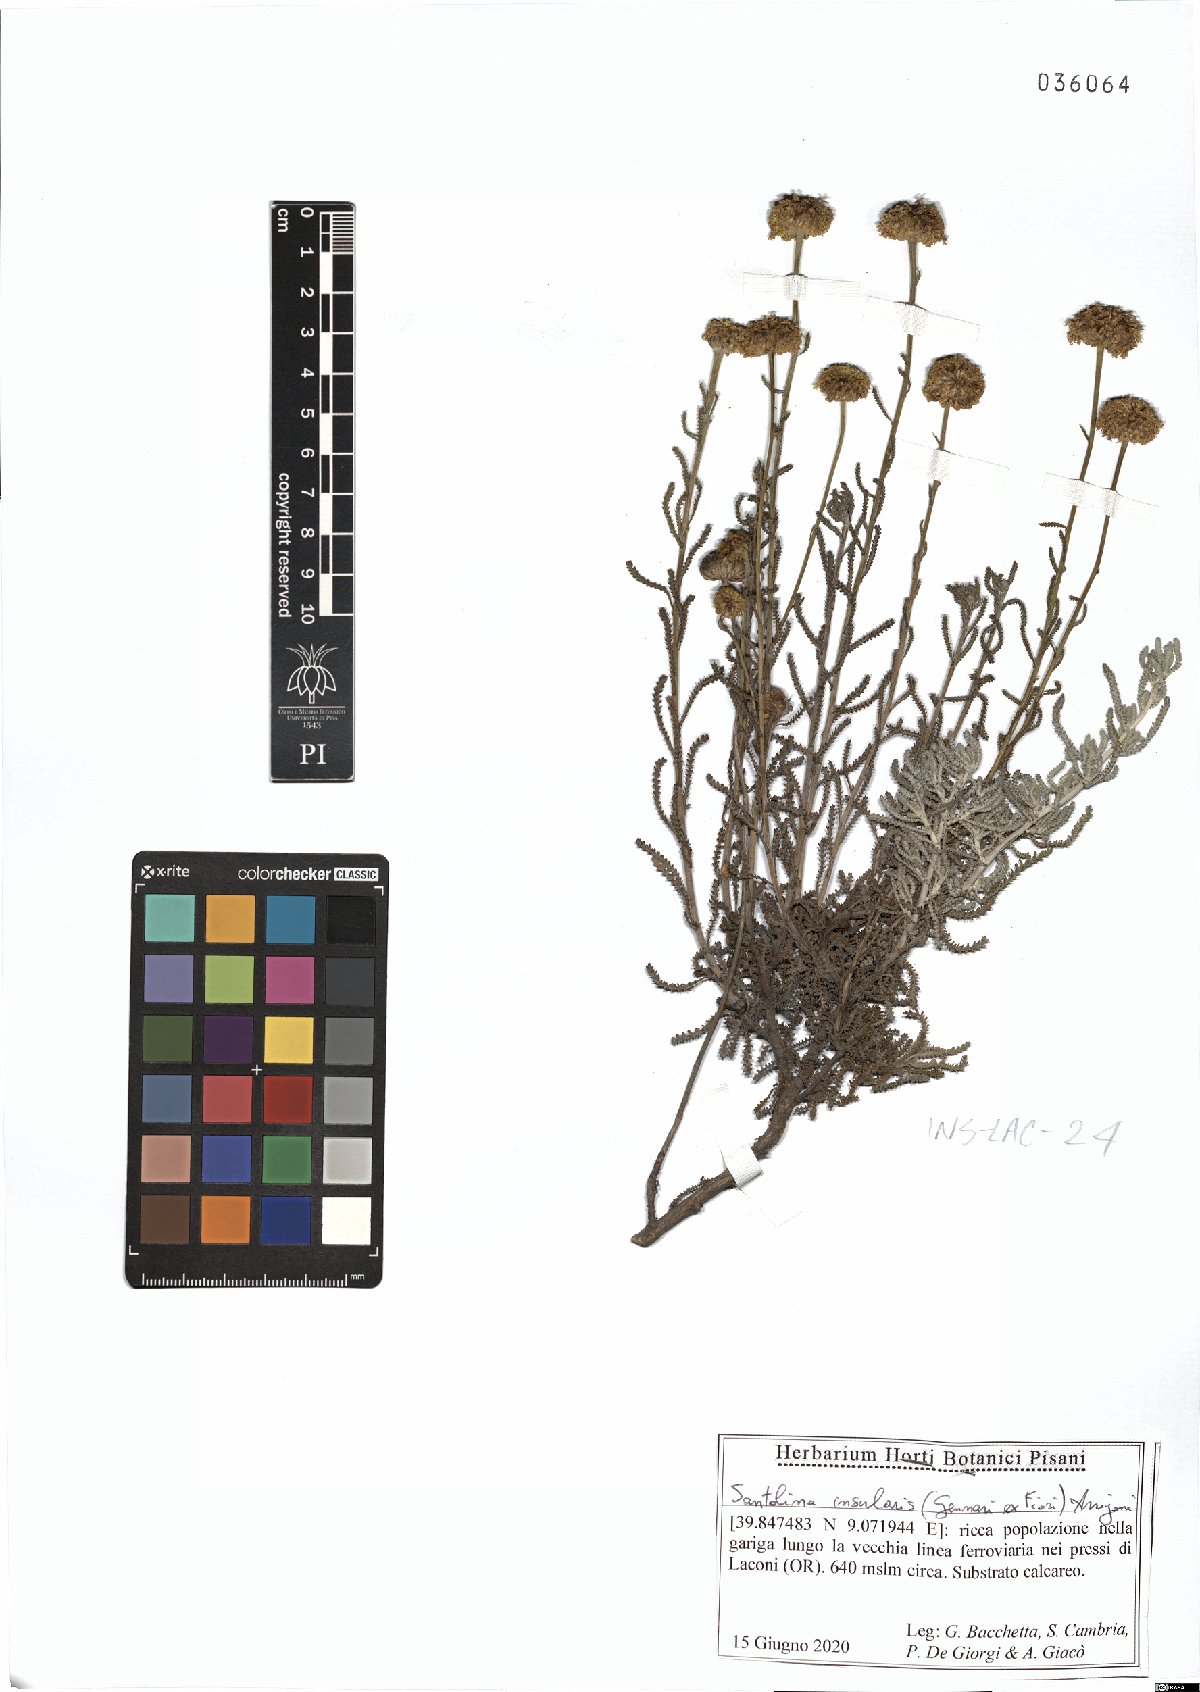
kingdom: Plantae
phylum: Tracheophyta
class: Magnoliopsida
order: Asterales
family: Asteraceae
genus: Santolina
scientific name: Santolina insularis
